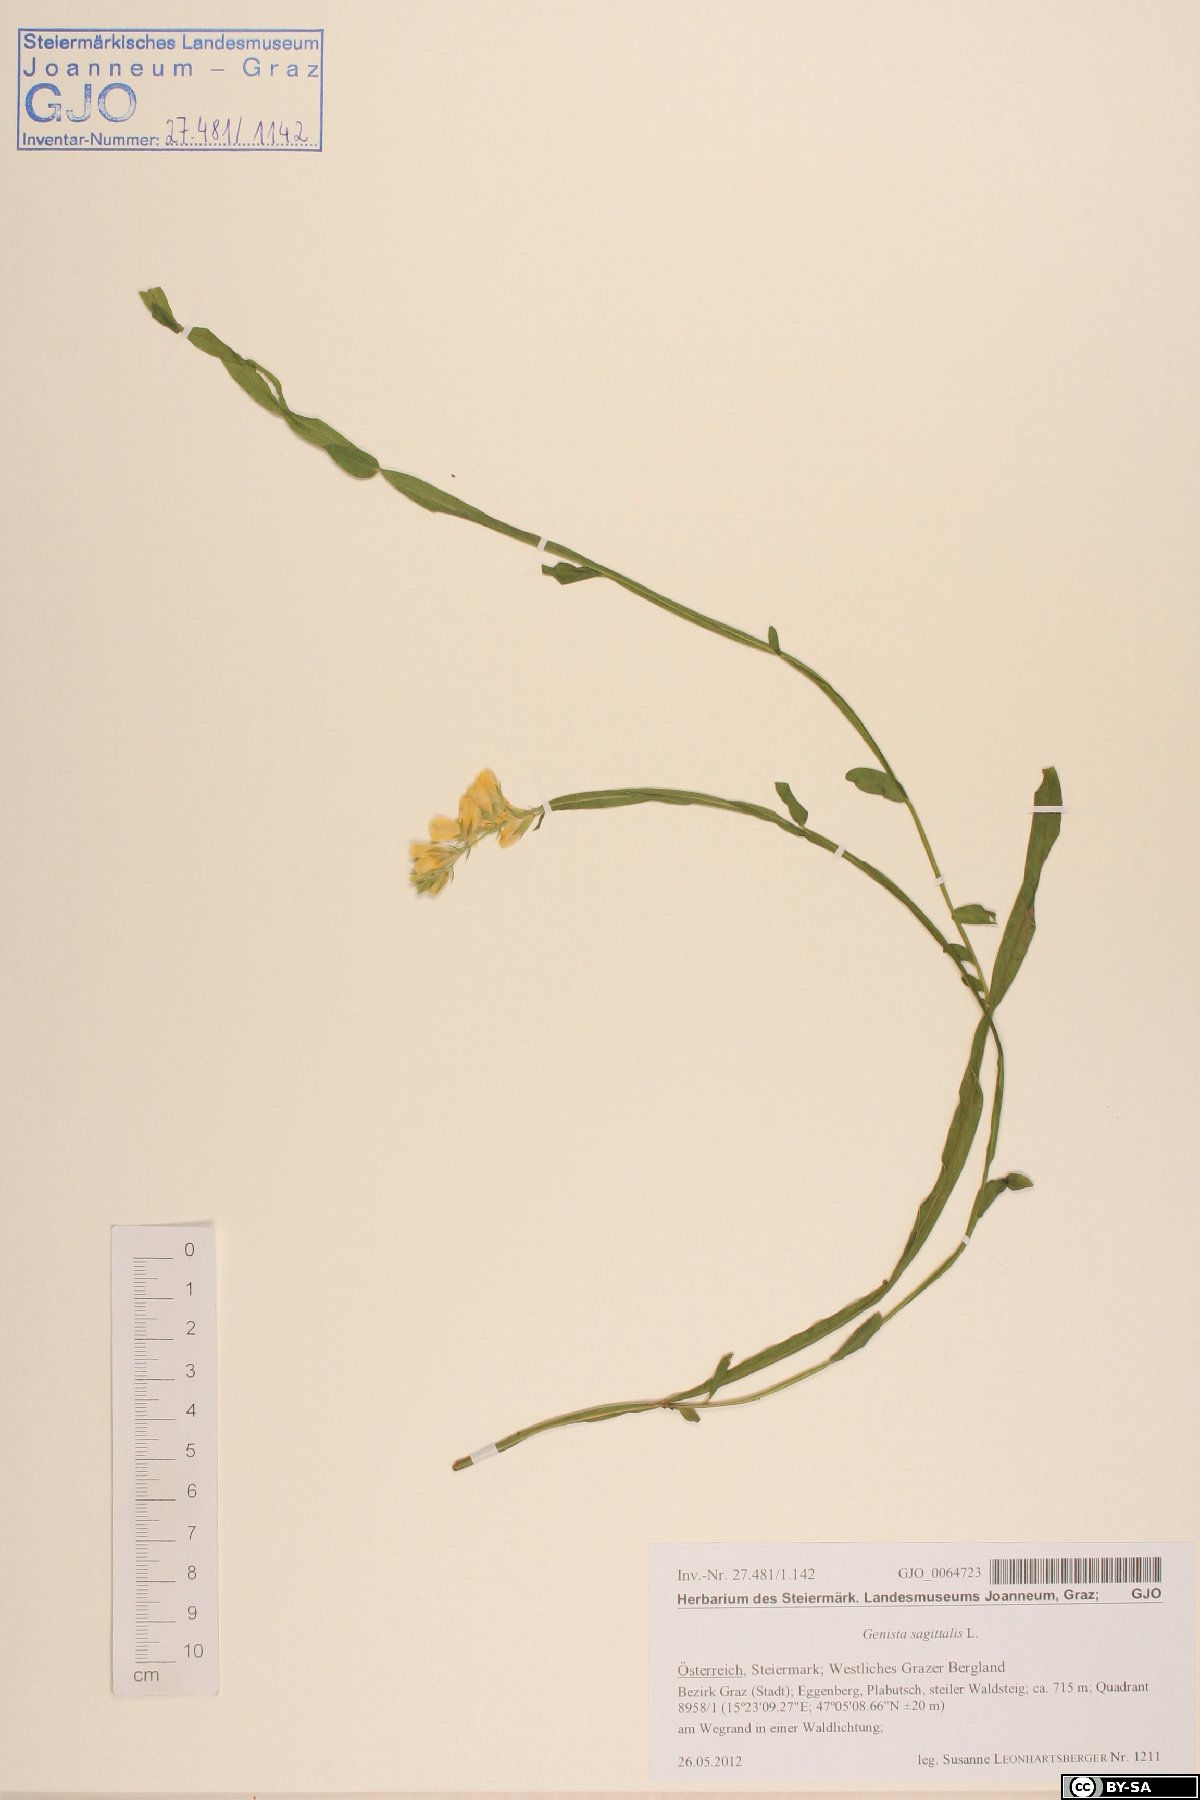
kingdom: Plantae
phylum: Tracheophyta
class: Magnoliopsida
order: Fabales
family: Fabaceae
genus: Genista
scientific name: Genista sagittalis
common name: Winged greenweed
